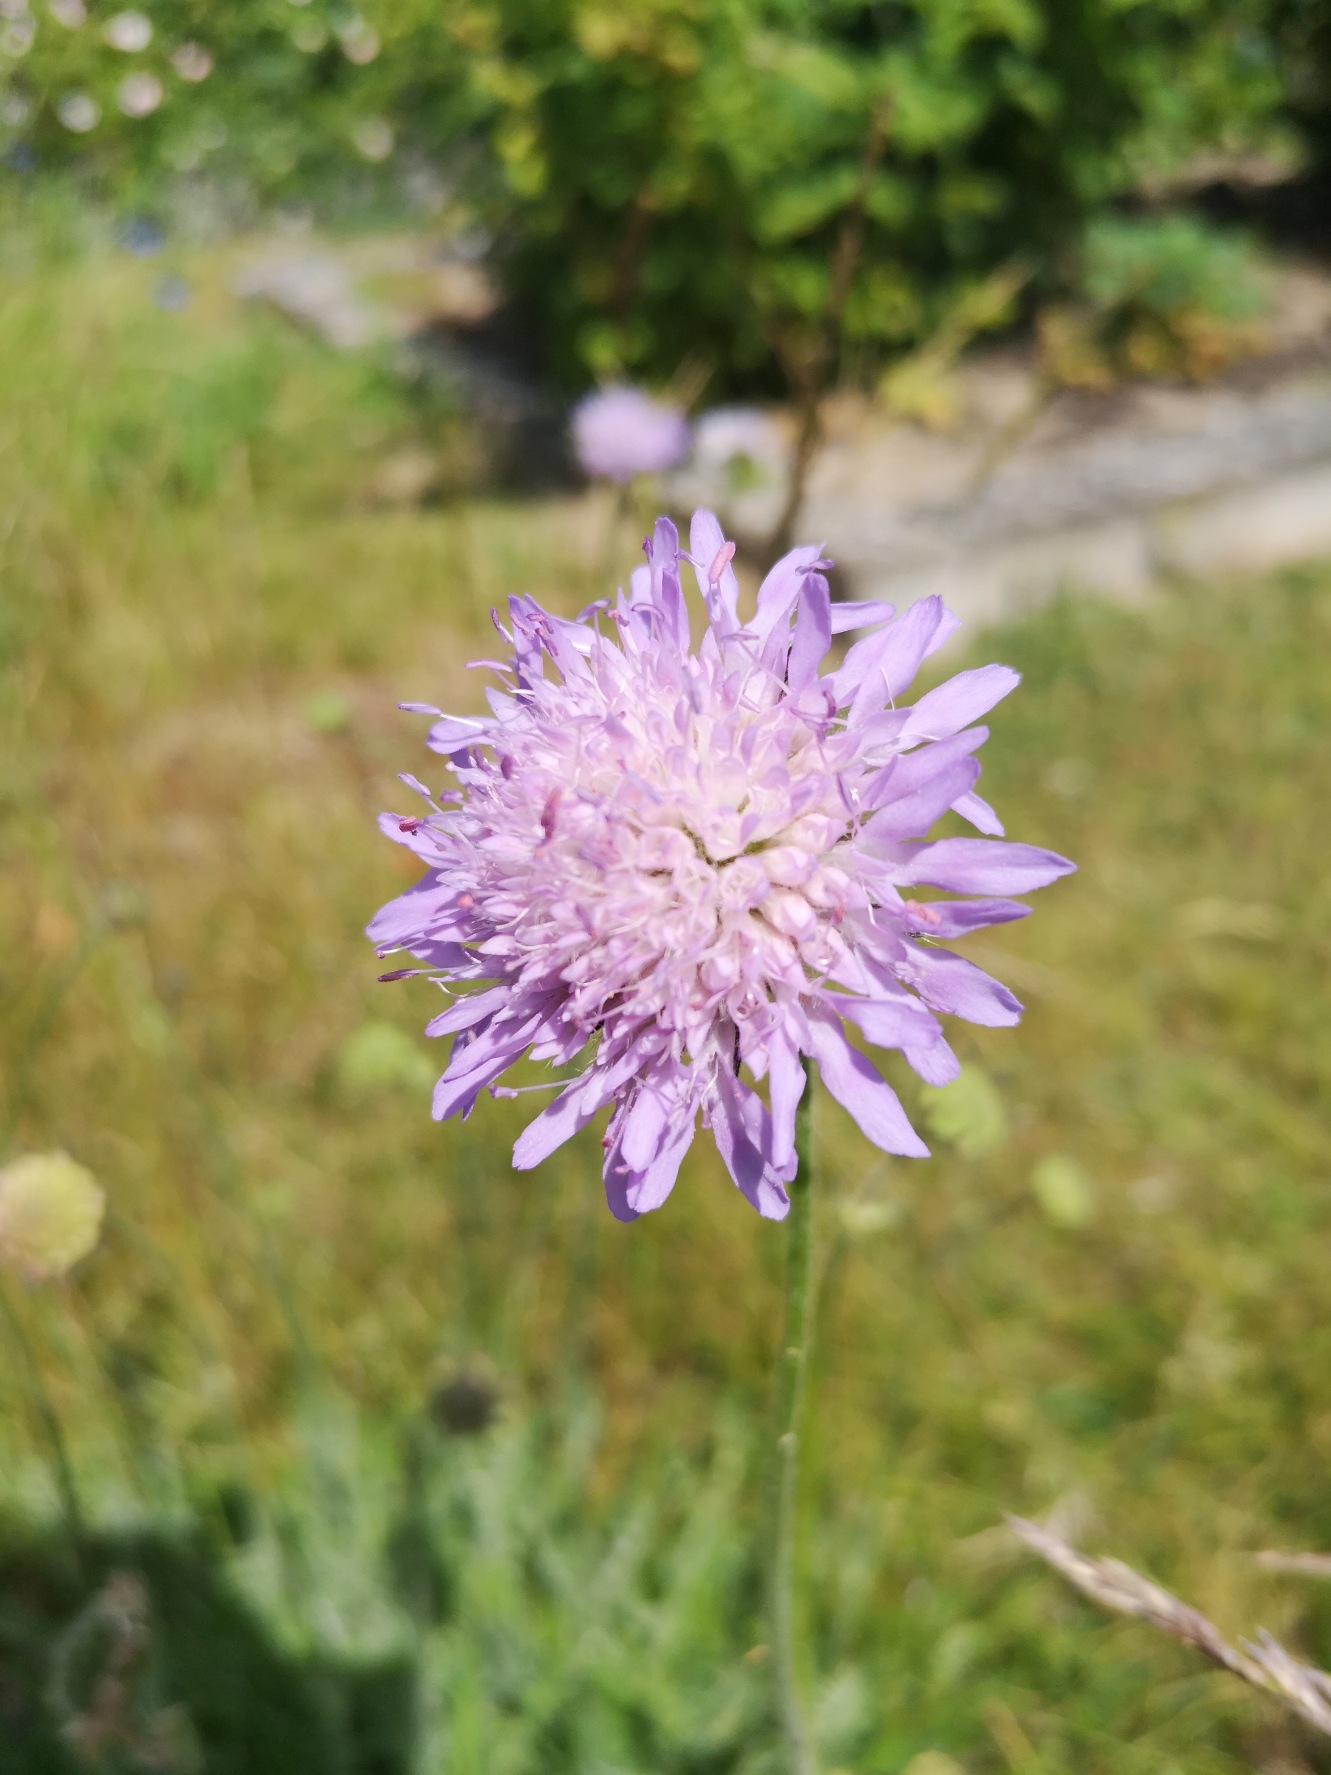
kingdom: Plantae
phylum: Tracheophyta
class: Magnoliopsida
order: Dipsacales
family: Caprifoliaceae
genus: Knautia
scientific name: Knautia arvensis
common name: Blåhat
